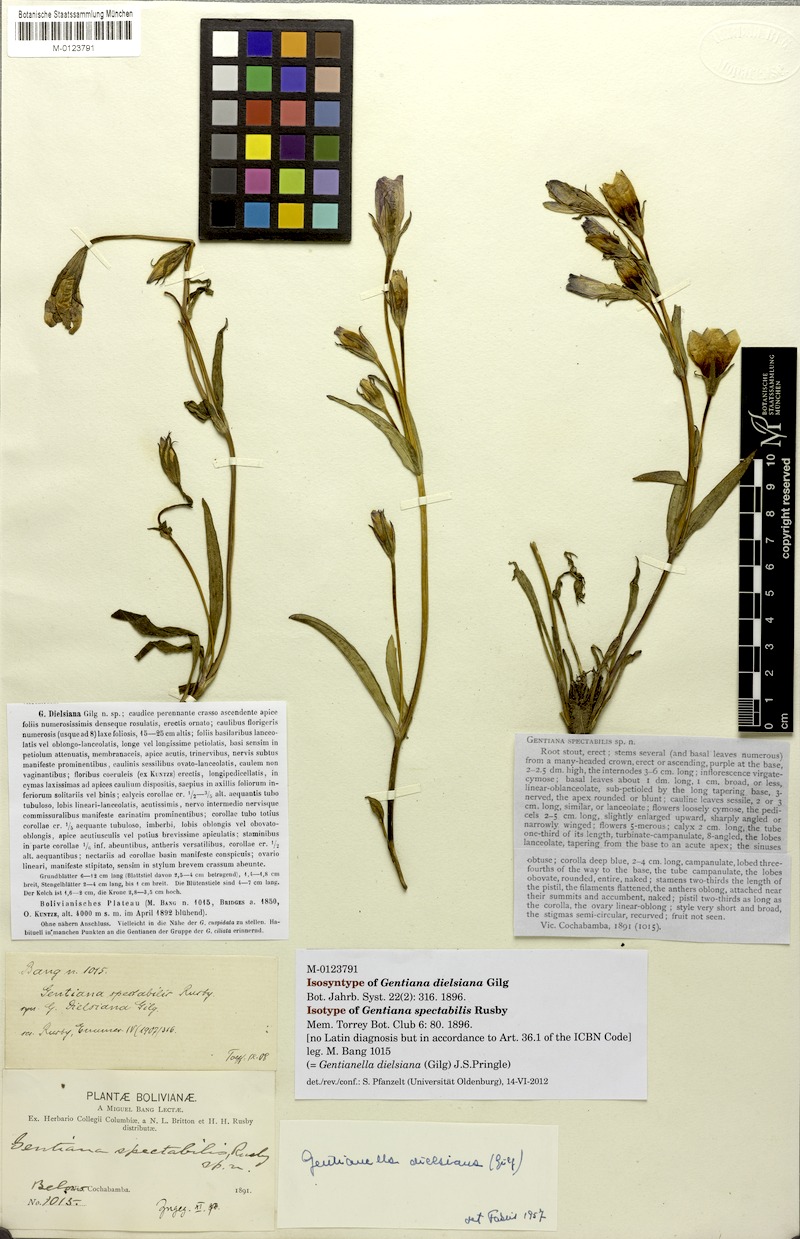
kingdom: Plantae
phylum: Tracheophyta
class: Magnoliopsida
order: Gentianales
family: Gentianaceae
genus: Gentianella
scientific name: Gentianella dielsiana
